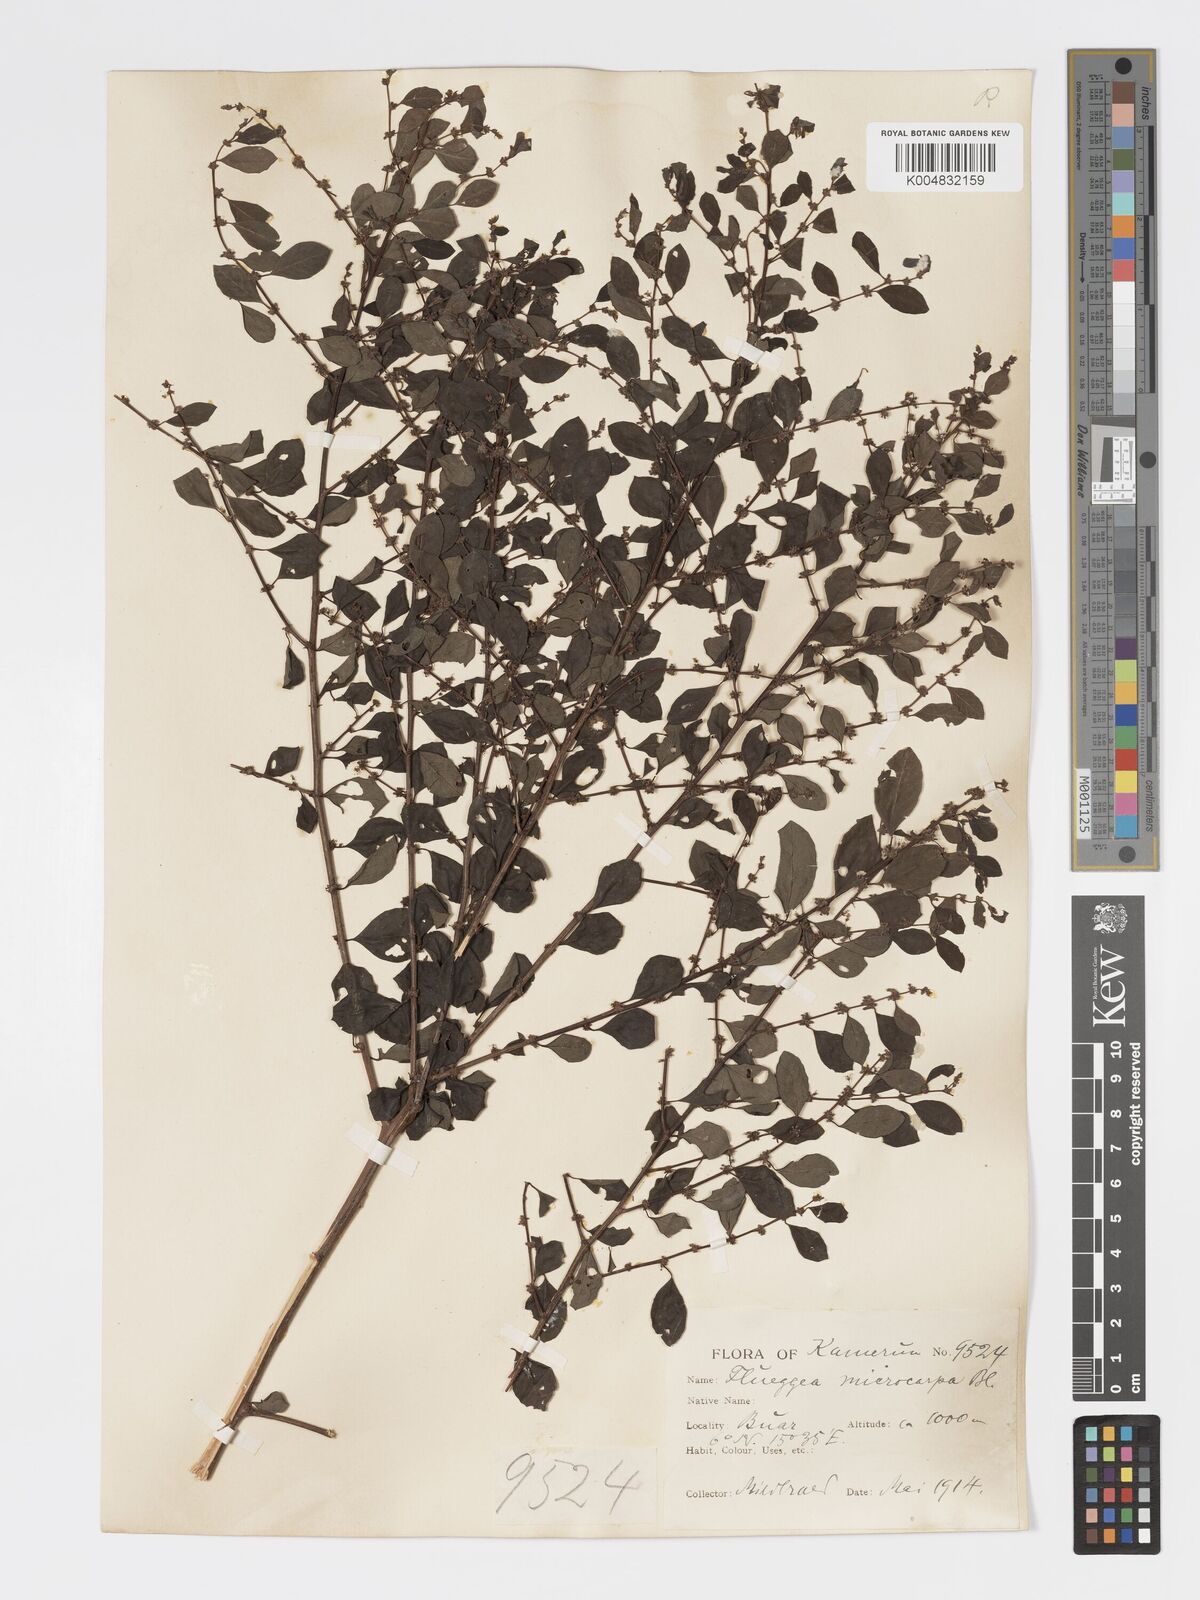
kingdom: Plantae
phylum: Tracheophyta
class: Magnoliopsida
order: Malpighiales
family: Phyllanthaceae
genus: Flueggea
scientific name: Flueggea virosa
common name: Common bushweed
